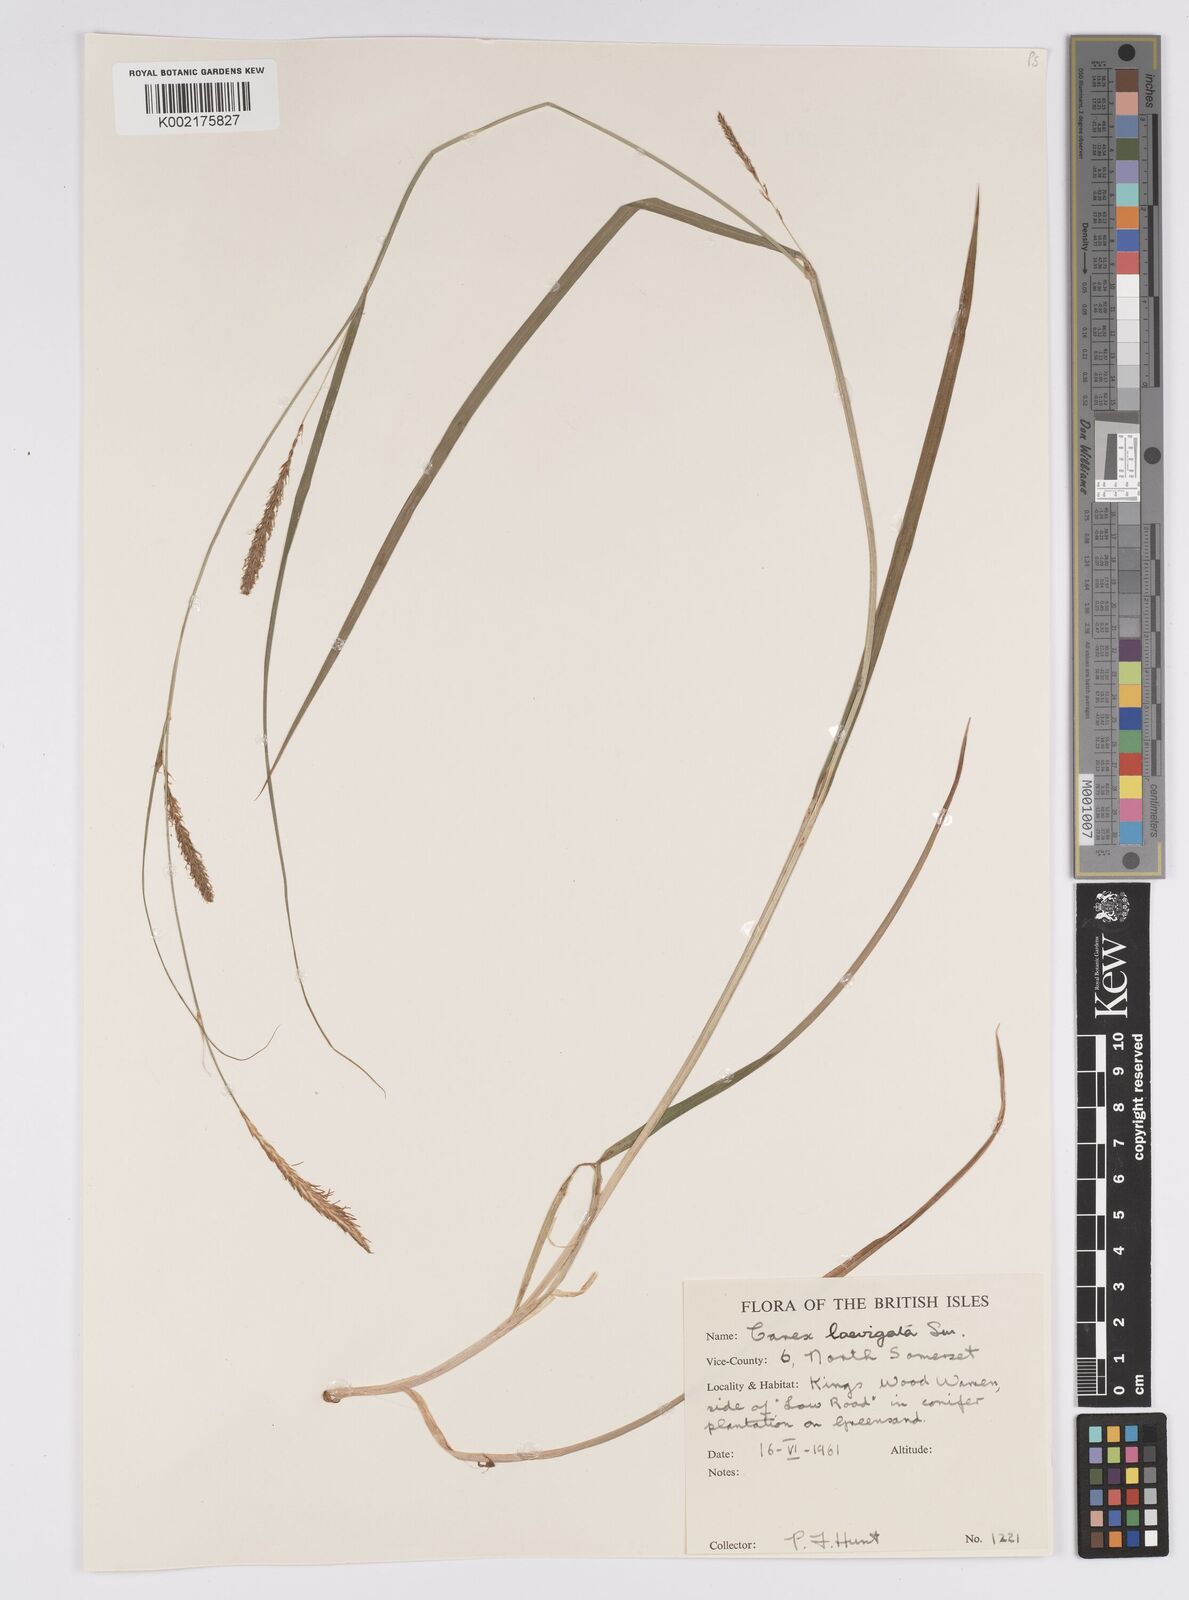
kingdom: Plantae
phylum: Tracheophyta
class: Liliopsida
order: Poales
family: Cyperaceae
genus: Carex
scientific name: Carex laevigata
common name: Smooth-stalked sedge
